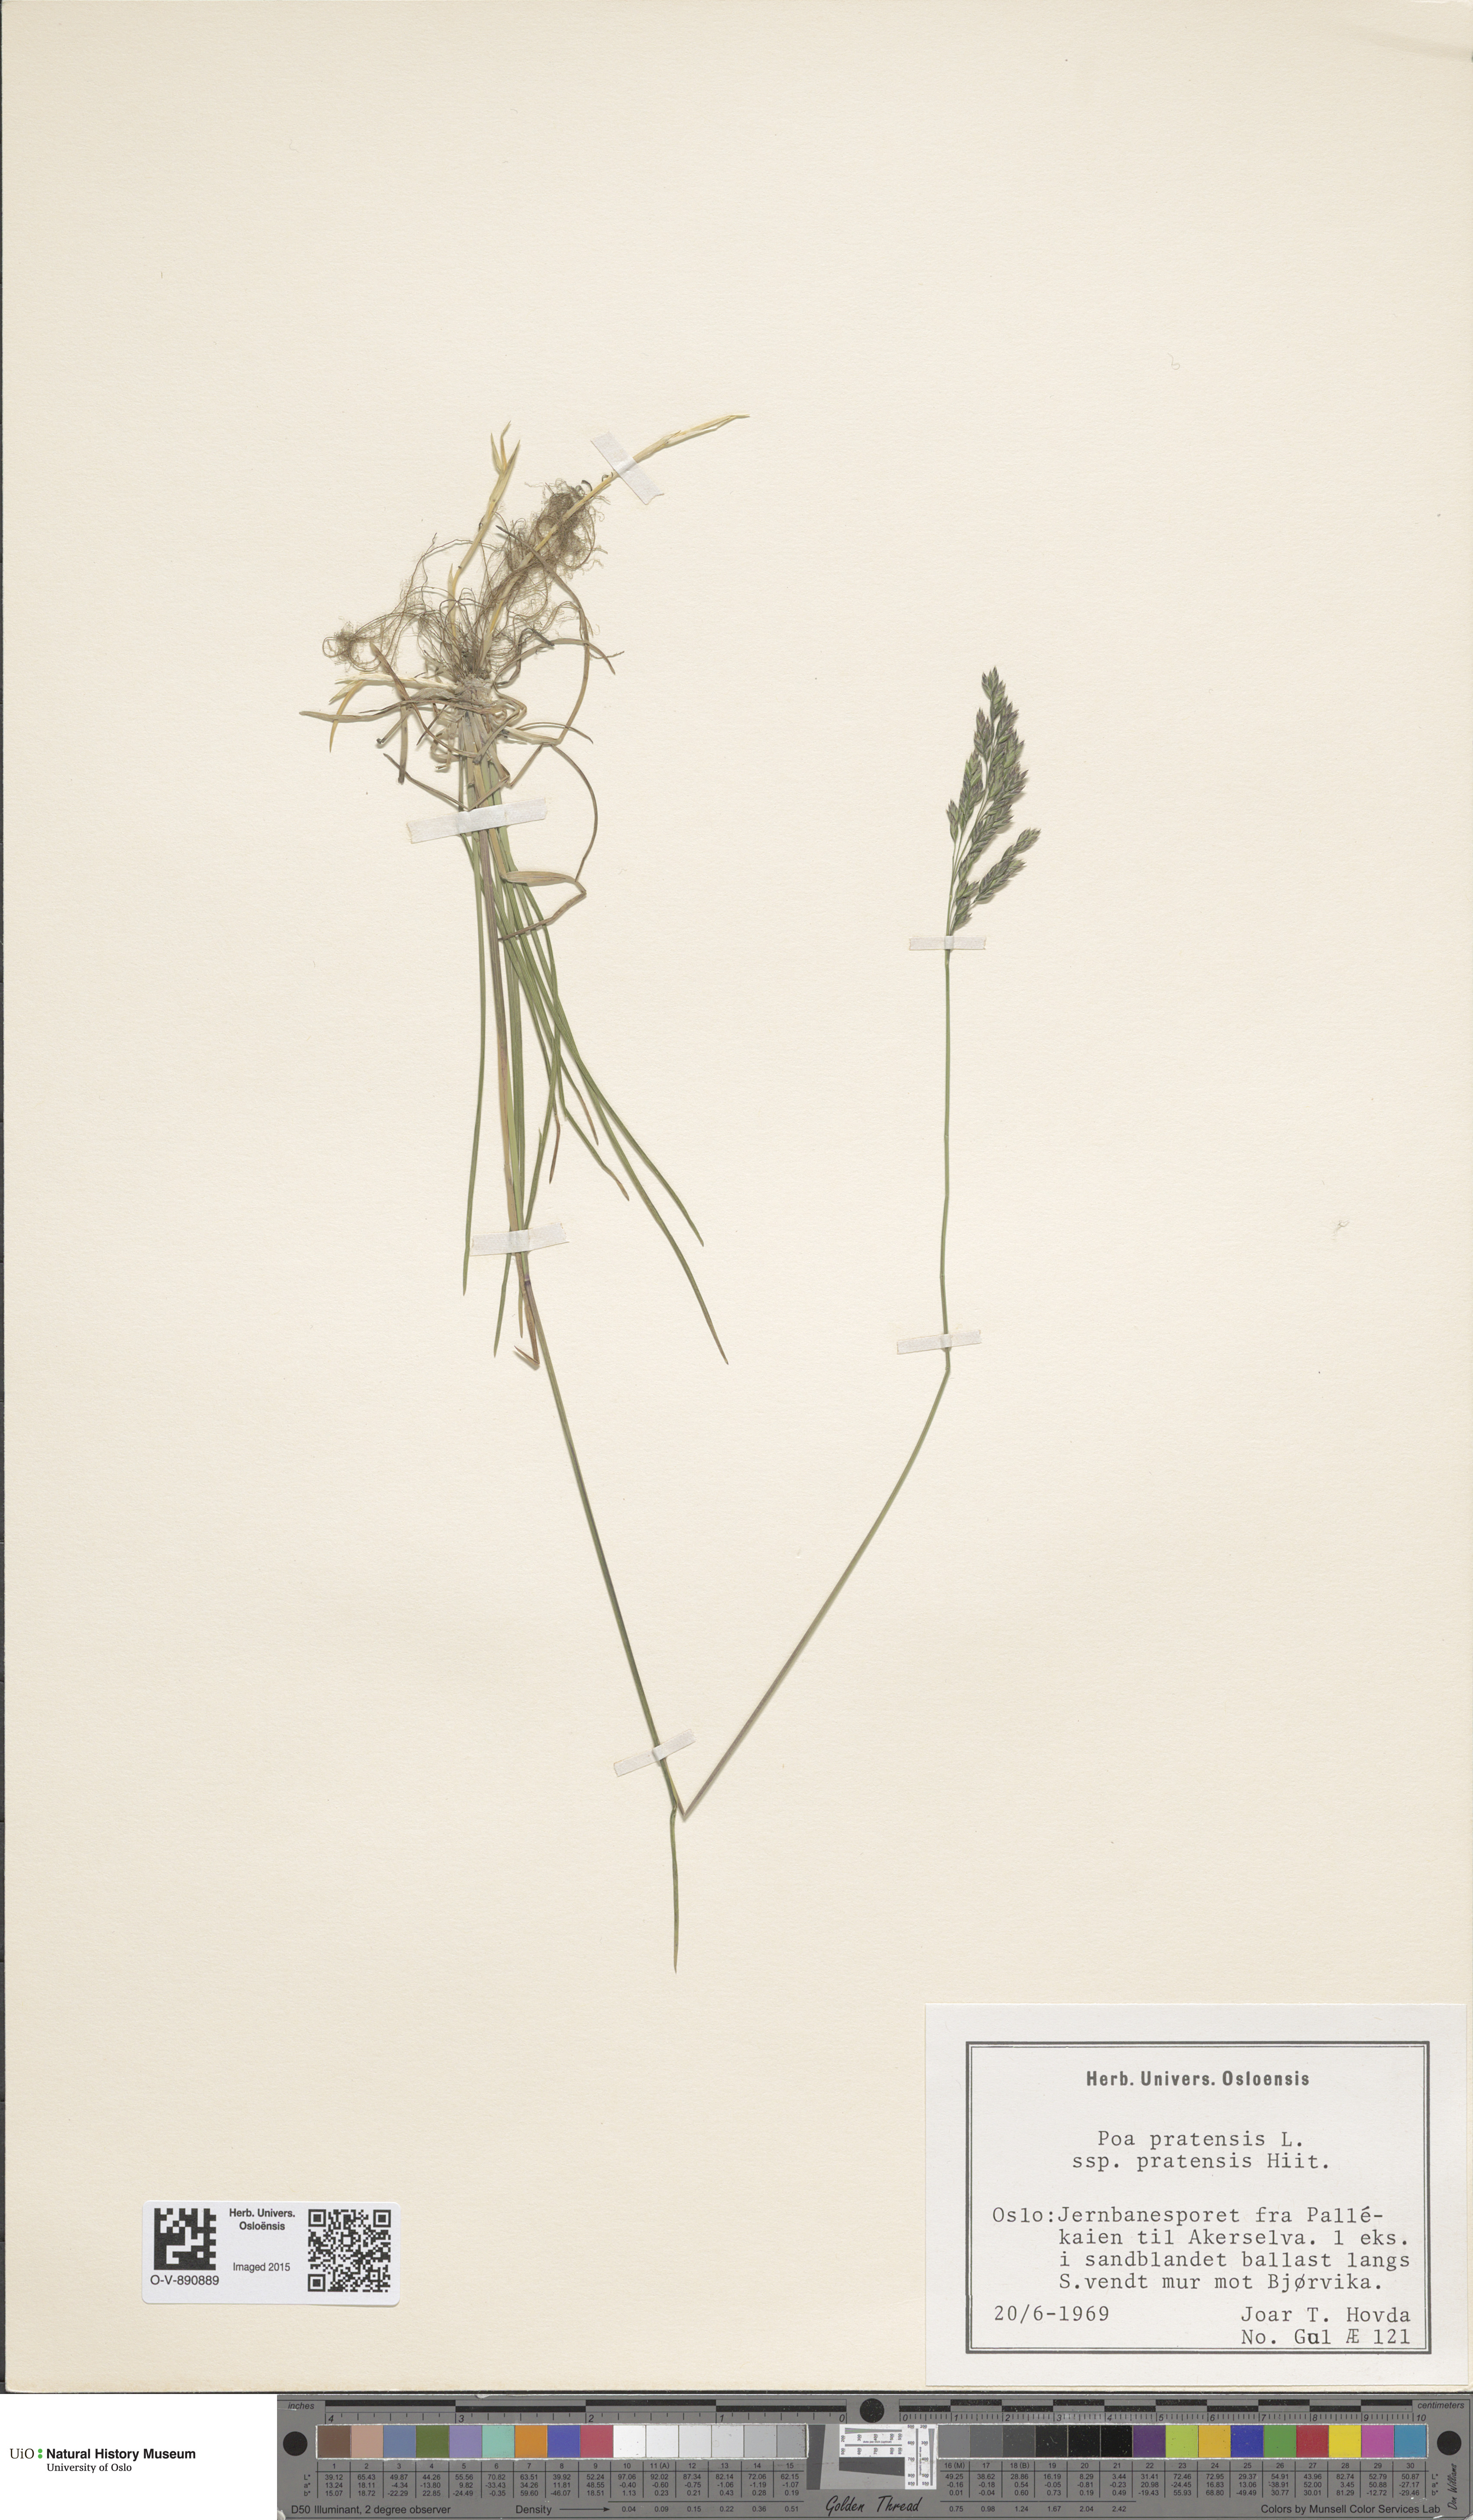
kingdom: Plantae
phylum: Tracheophyta
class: Liliopsida
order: Poales
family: Poaceae
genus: Poa
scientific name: Poa pratensis
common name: Kentucky bluegrass
